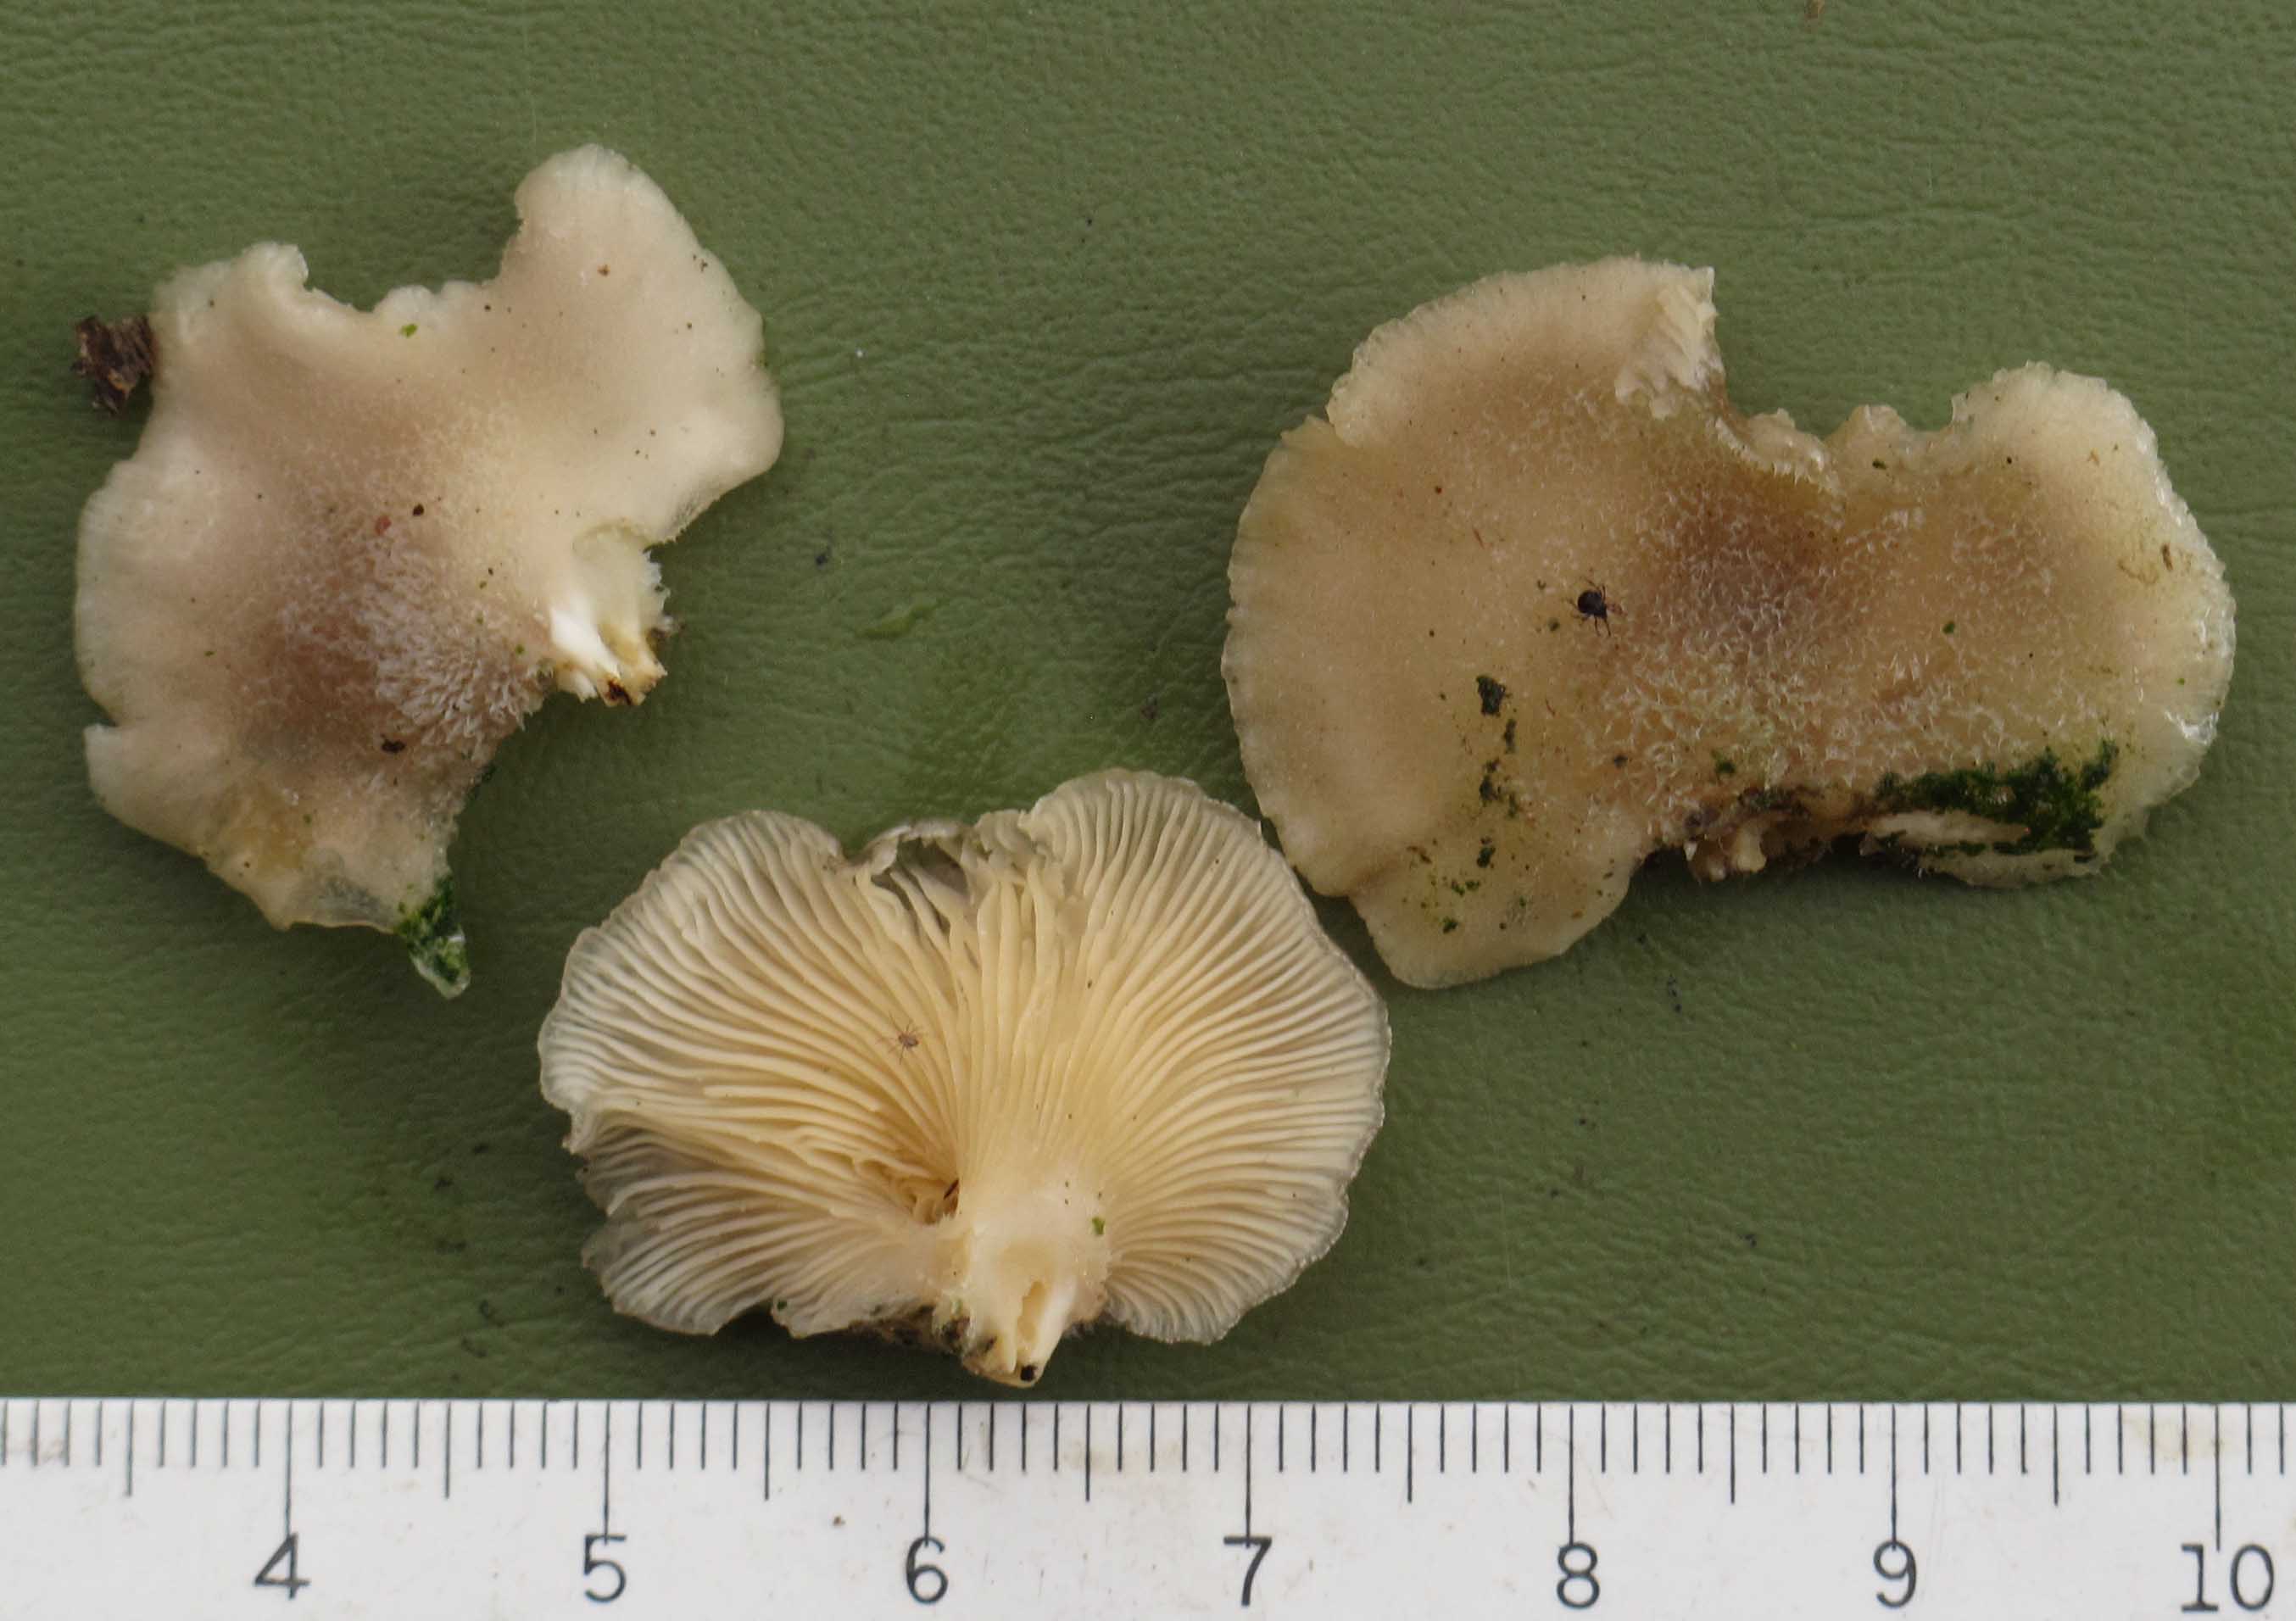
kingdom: Fungi
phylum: Basidiomycota
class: Agaricomycetes
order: Agaricales
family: Pleurotaceae
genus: Hohenbuehelia
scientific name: Hohenbuehelia mastrucata
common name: skællet filthat
